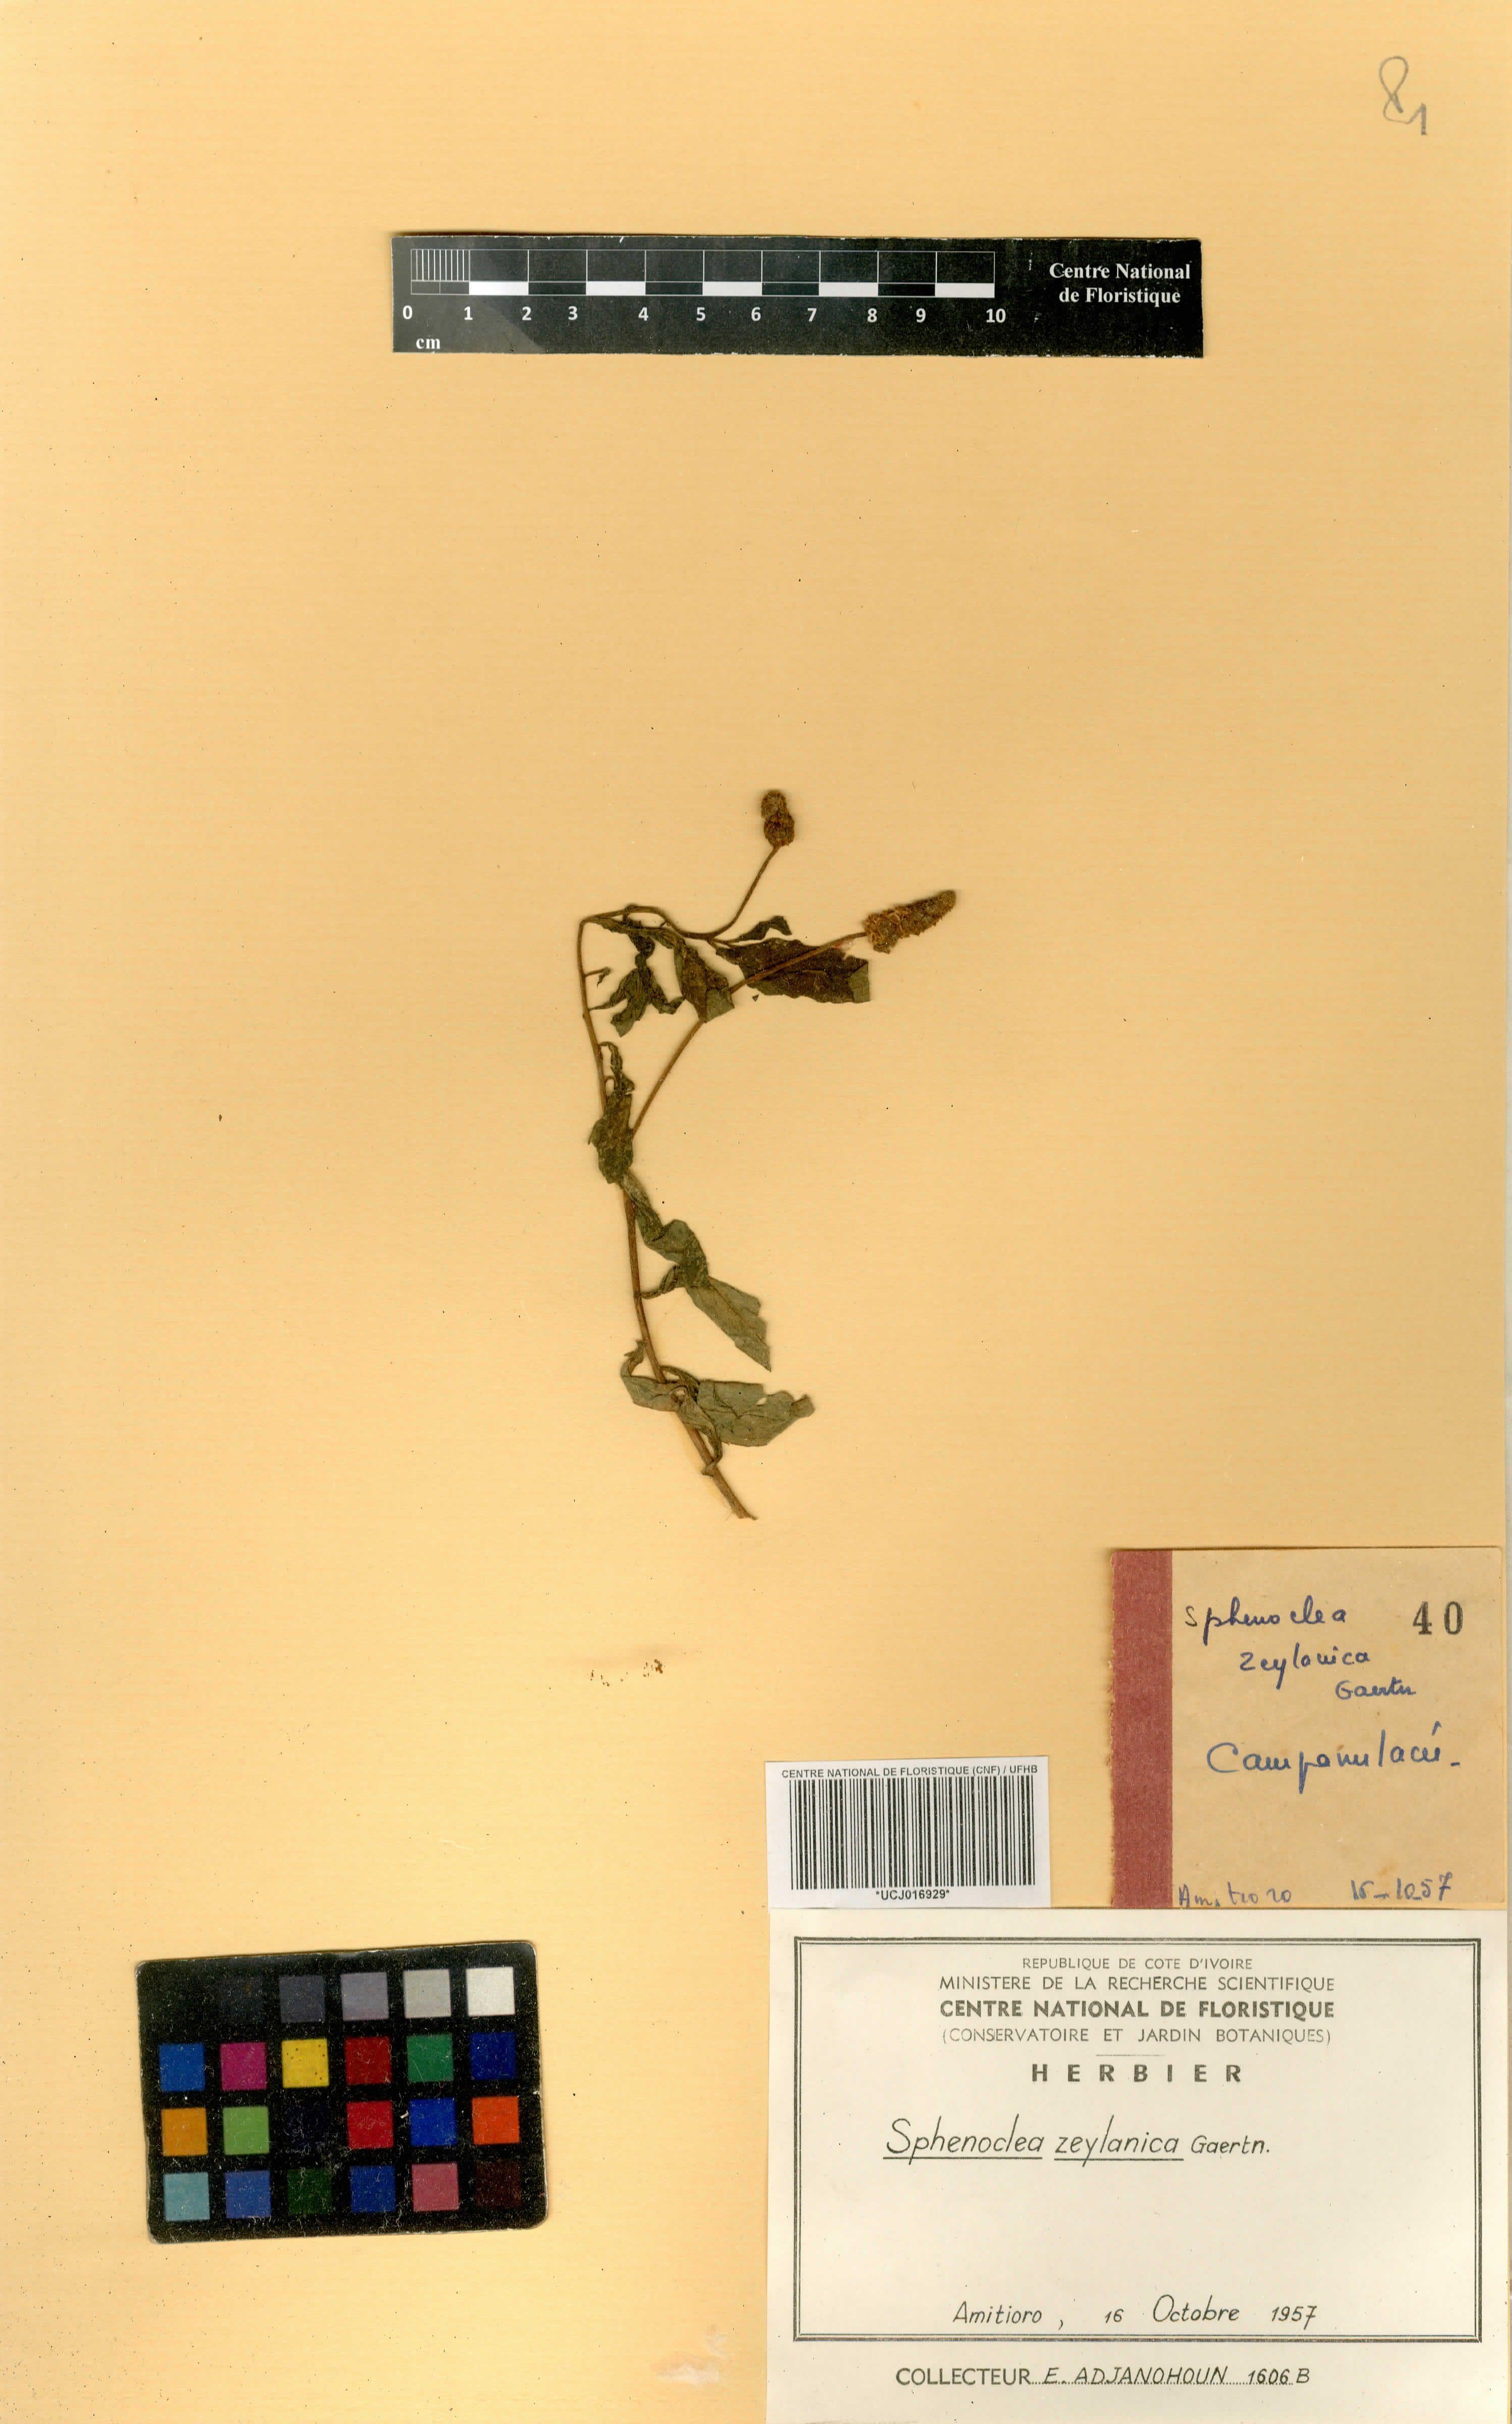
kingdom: Plantae
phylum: Tracheophyta
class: Magnoliopsida
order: Solanales
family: Solanaceae
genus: Solanum
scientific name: Solanum nigrum
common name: Black nightshade
